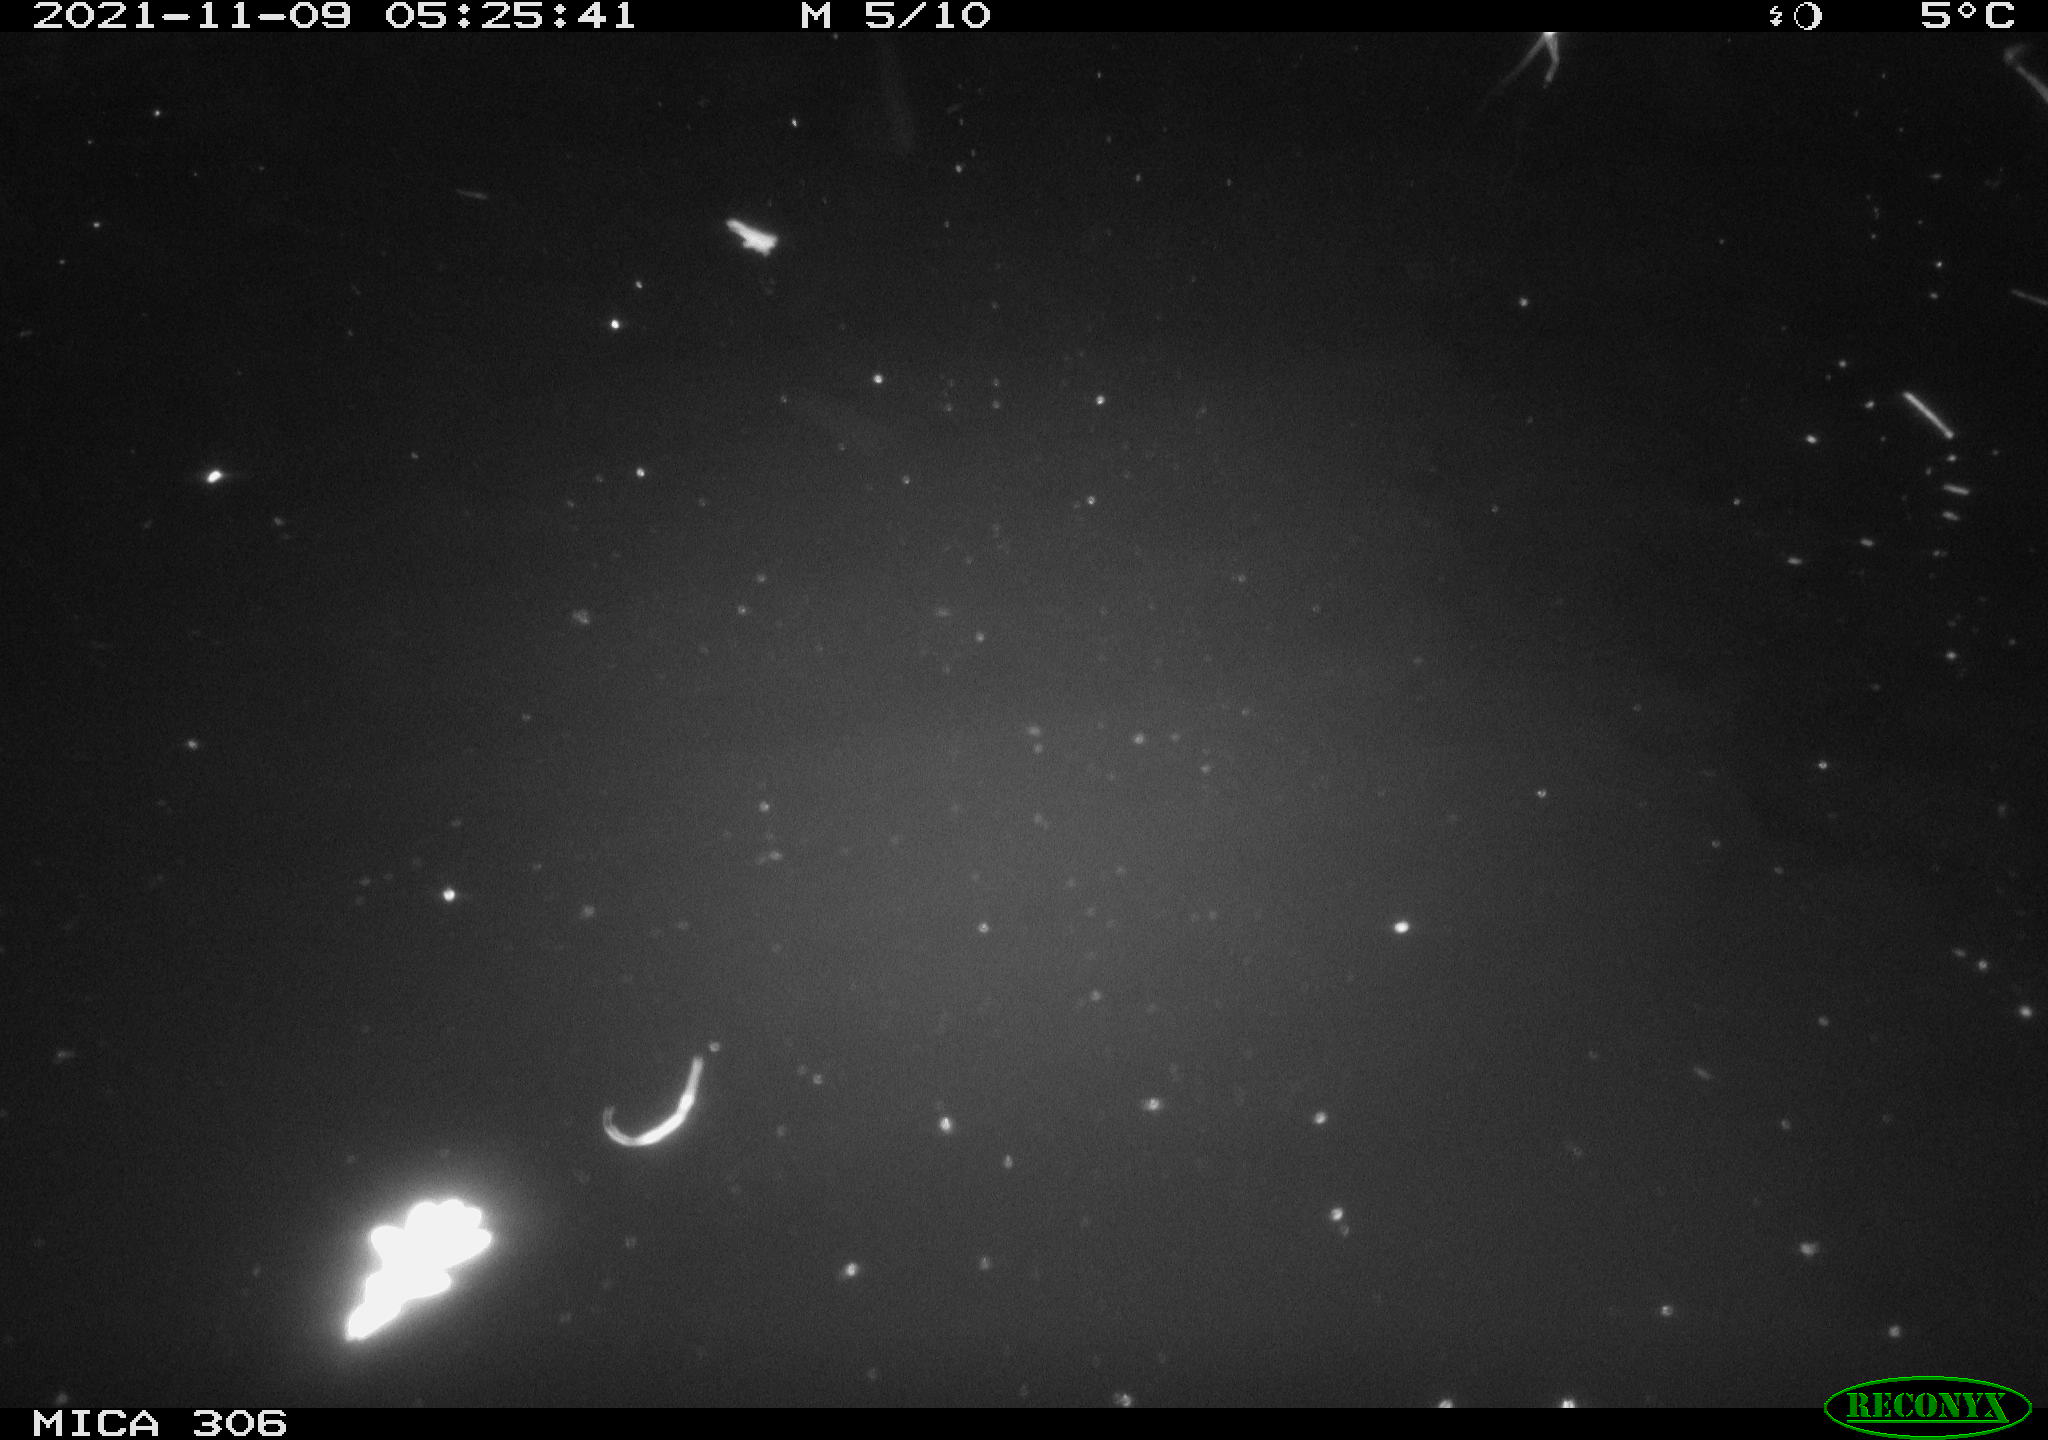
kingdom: Animalia
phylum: Chordata
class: Mammalia
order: Rodentia
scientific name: Rodentia
